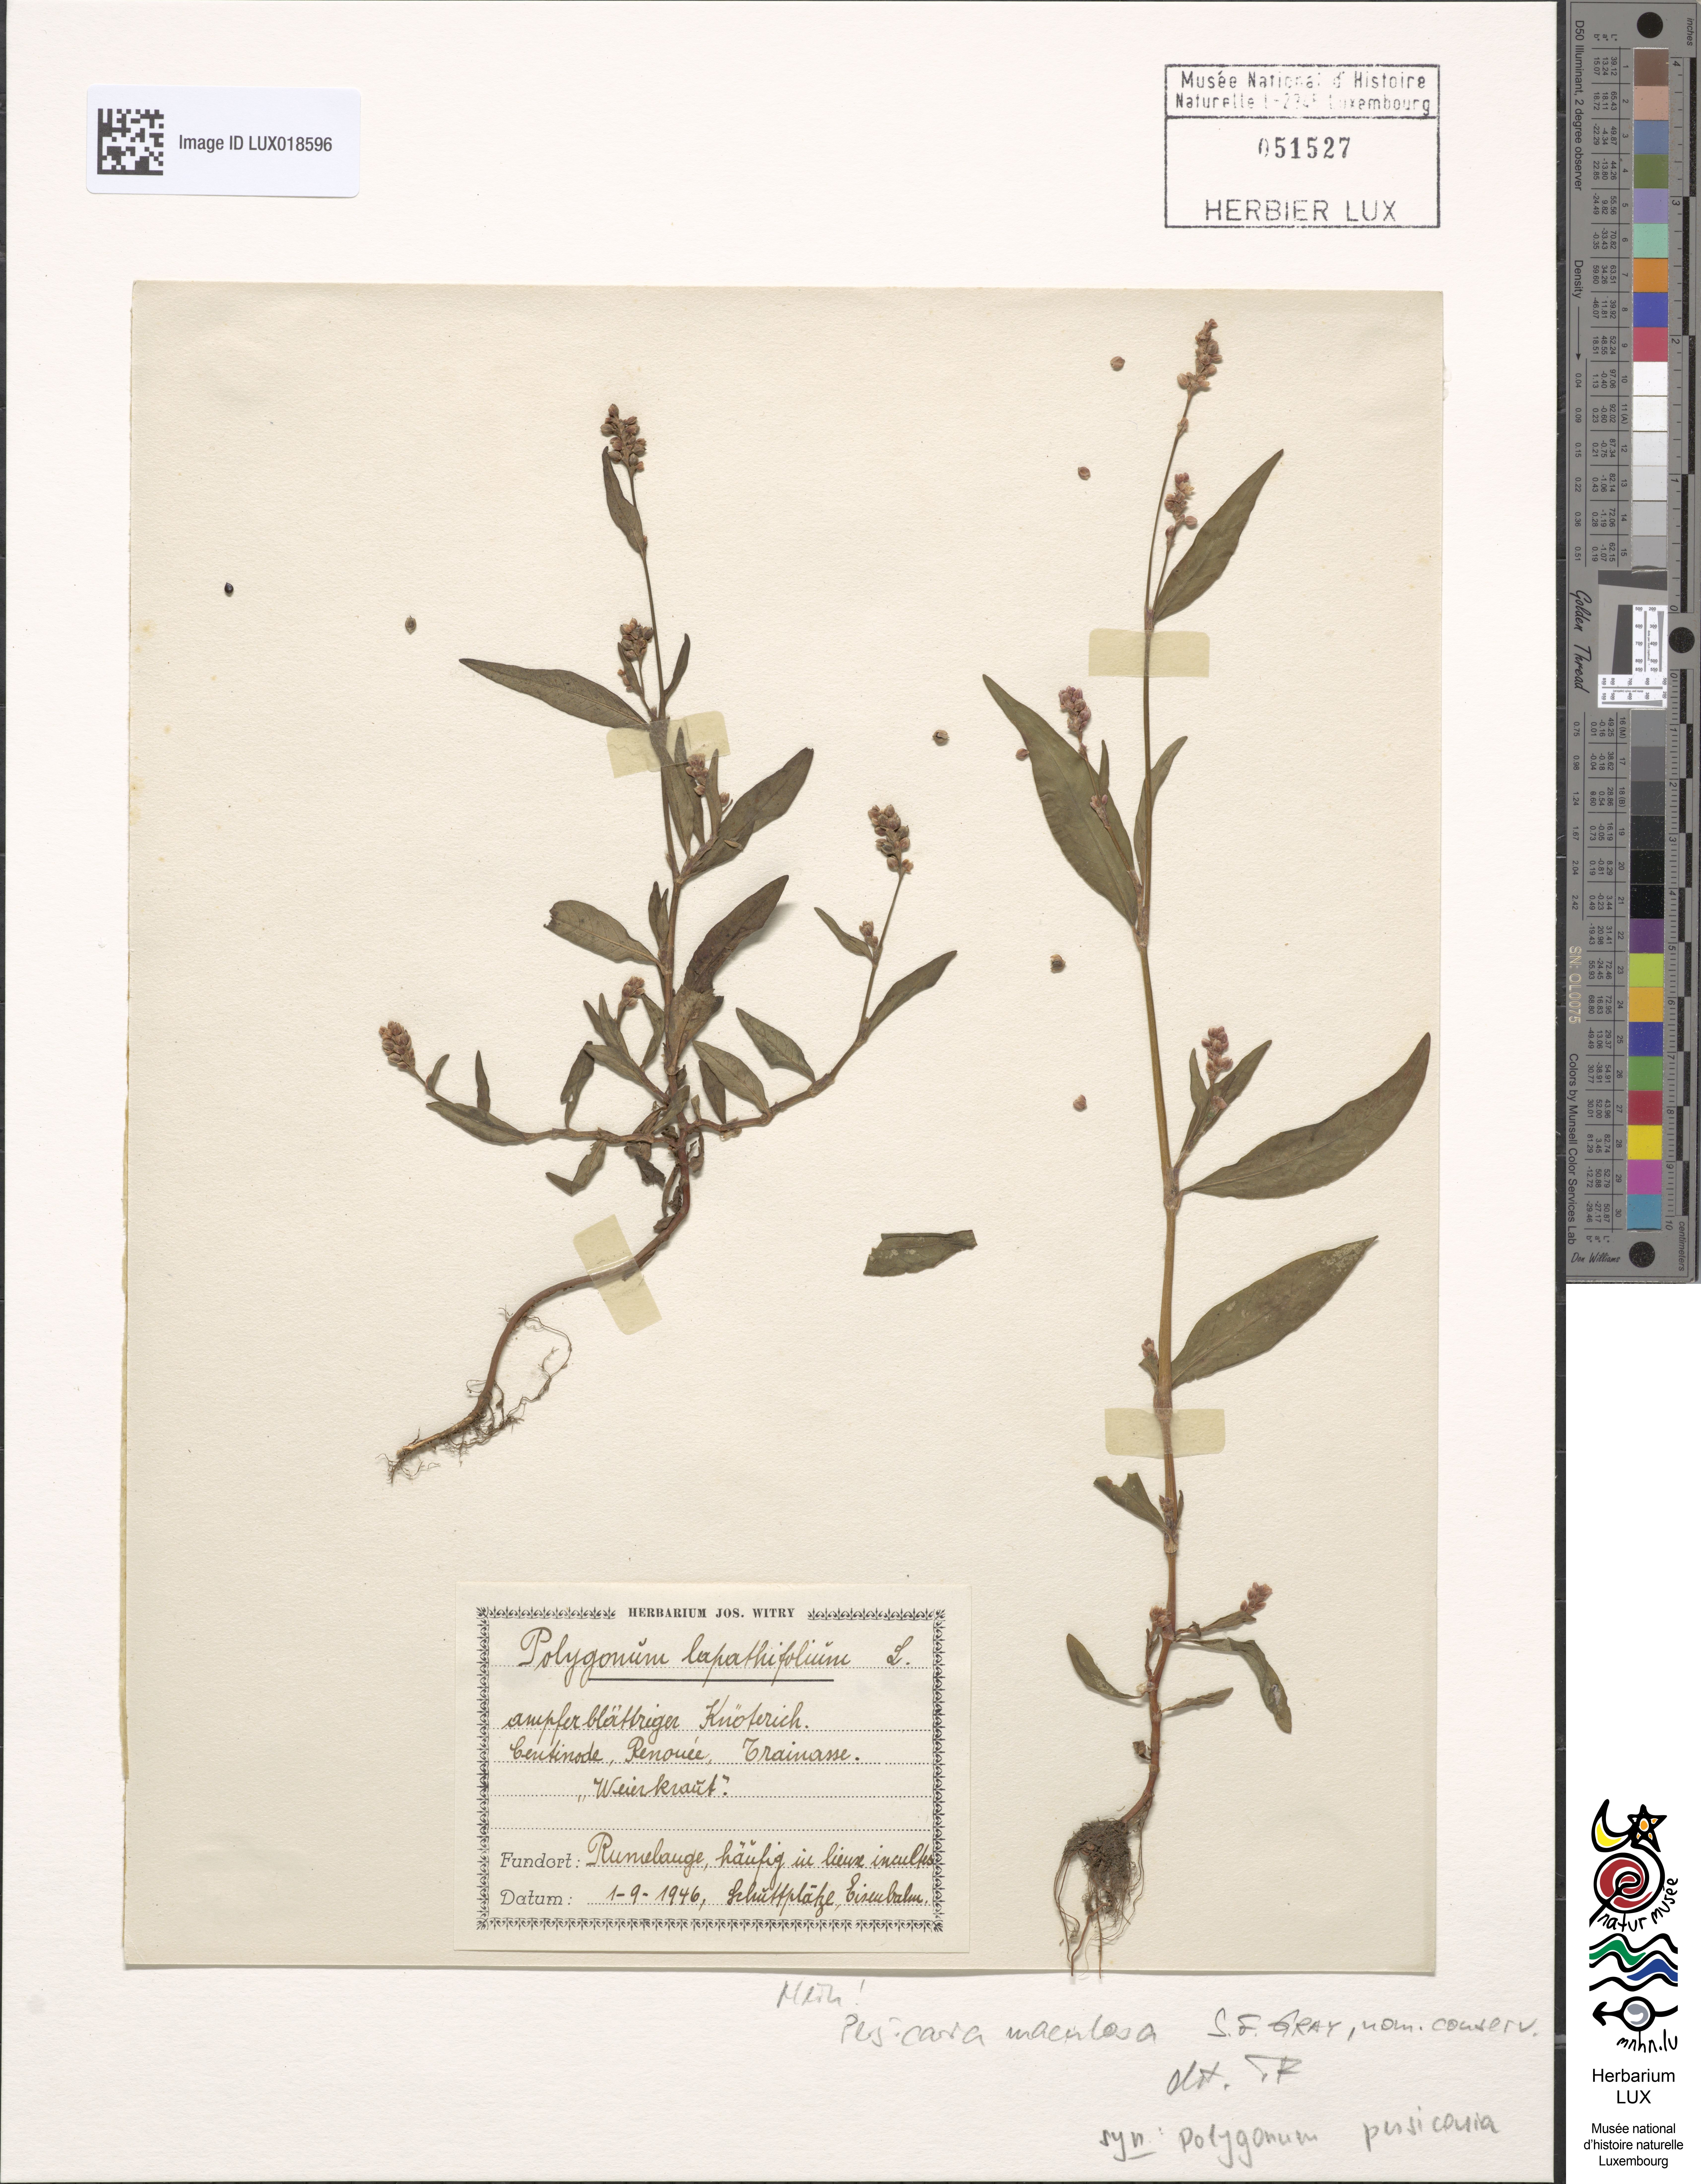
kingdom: Plantae
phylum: Tracheophyta
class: Magnoliopsida
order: Caryophyllales
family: Polygonaceae
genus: Persicaria
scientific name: Persicaria maculosa
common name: Redshank
